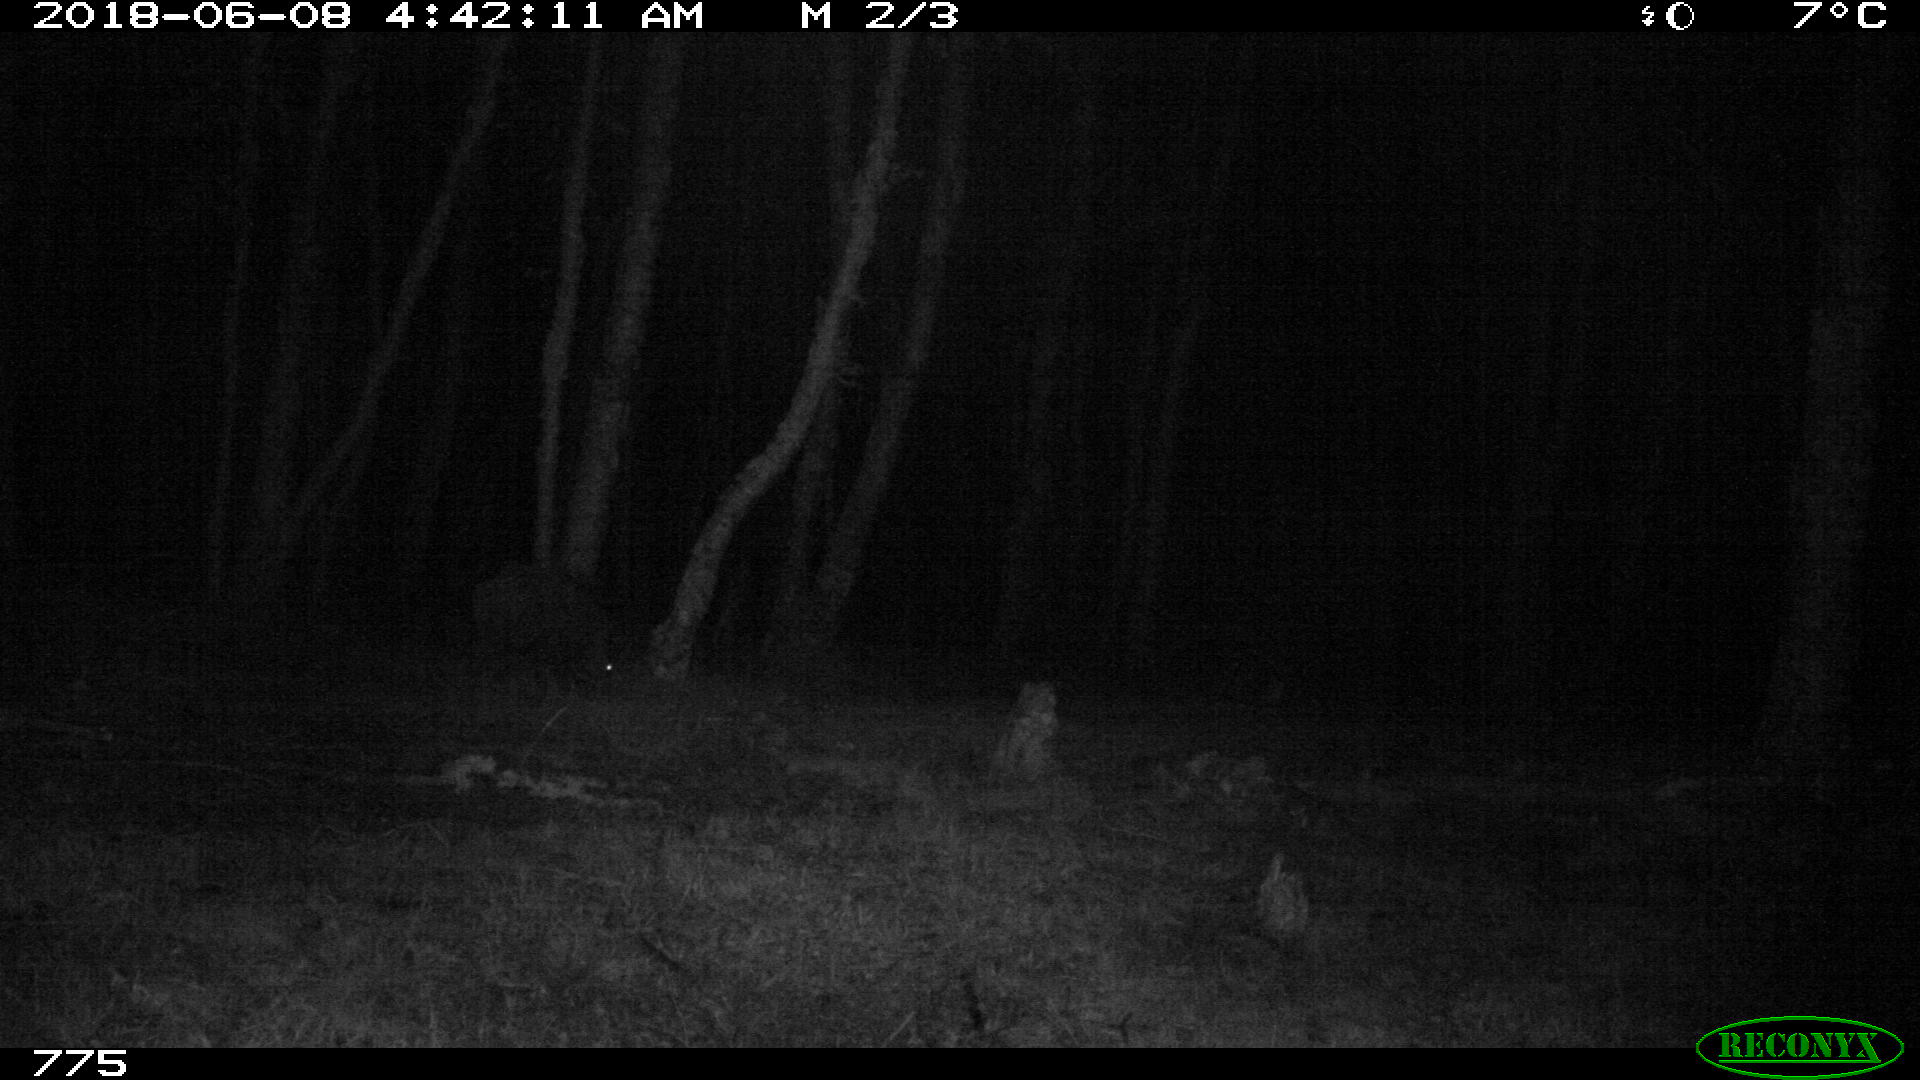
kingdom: Animalia
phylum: Chordata
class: Mammalia
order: Artiodactyla
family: Suidae
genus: Sus
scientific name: Sus scrofa
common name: Wild boar
